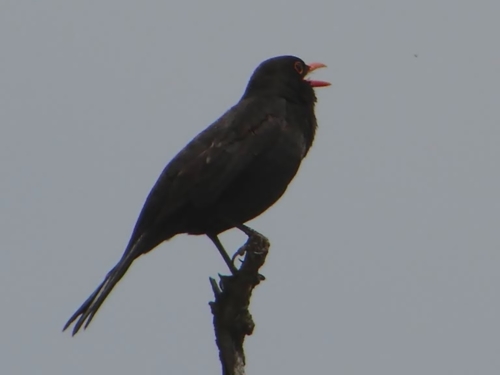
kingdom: Animalia
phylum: Chordata
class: Aves
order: Passeriformes
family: Turdidae
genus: Turdus
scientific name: Turdus merula
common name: Common blackbird
